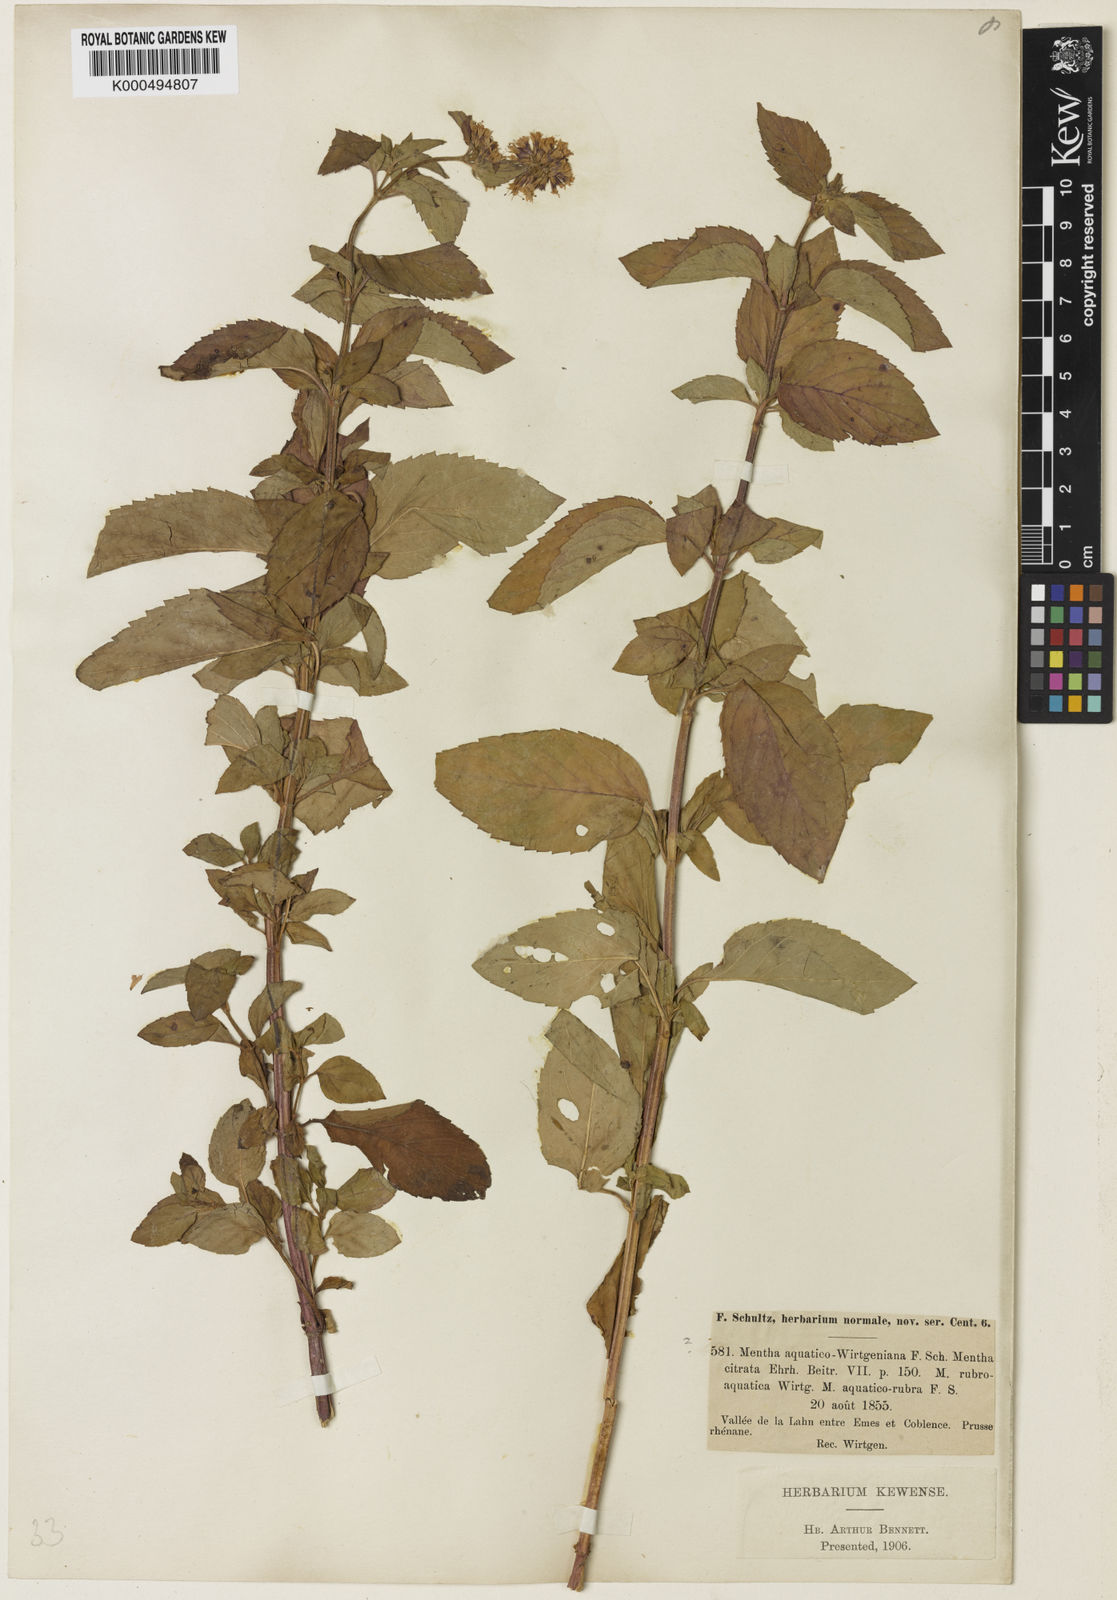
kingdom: Plantae
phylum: Tracheophyta
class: Magnoliopsida
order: Lamiales
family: Lamiaceae
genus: Mentha
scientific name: Mentha arvensis
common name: Corn mint
